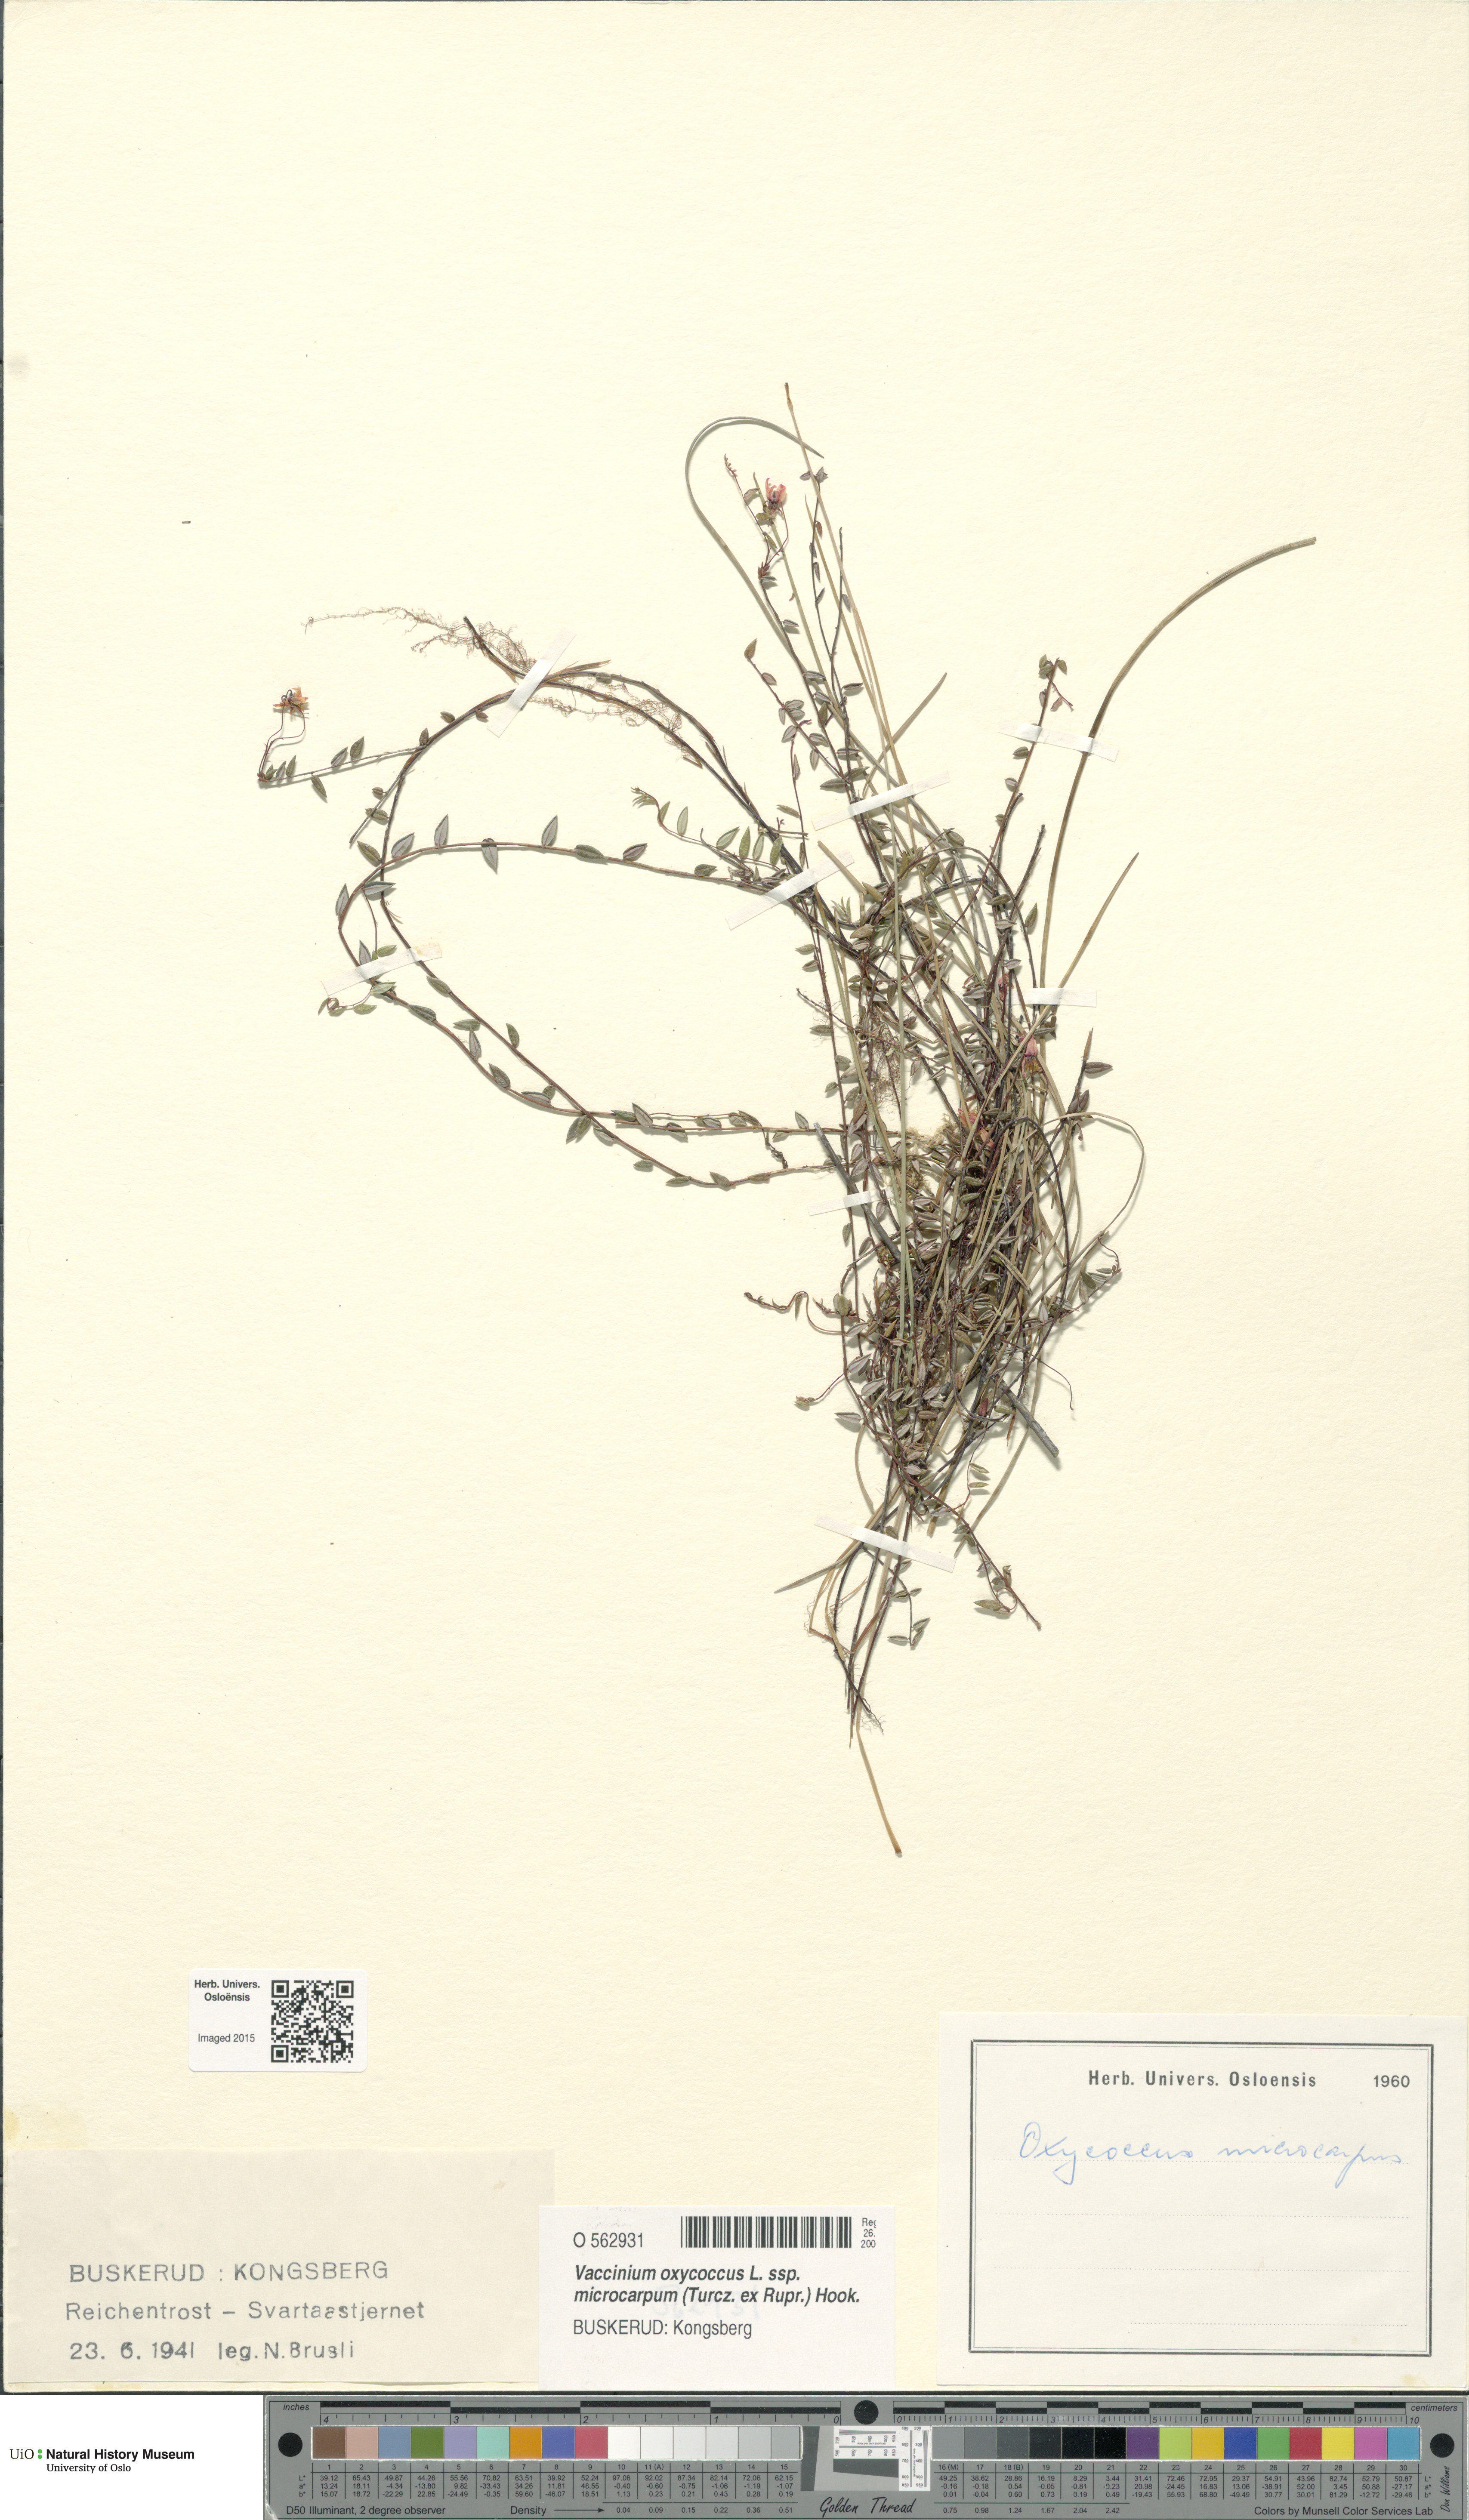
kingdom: Plantae
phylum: Tracheophyta
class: Magnoliopsida
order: Ericales
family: Ericaceae
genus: Vaccinium
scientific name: Vaccinium microcarpum
